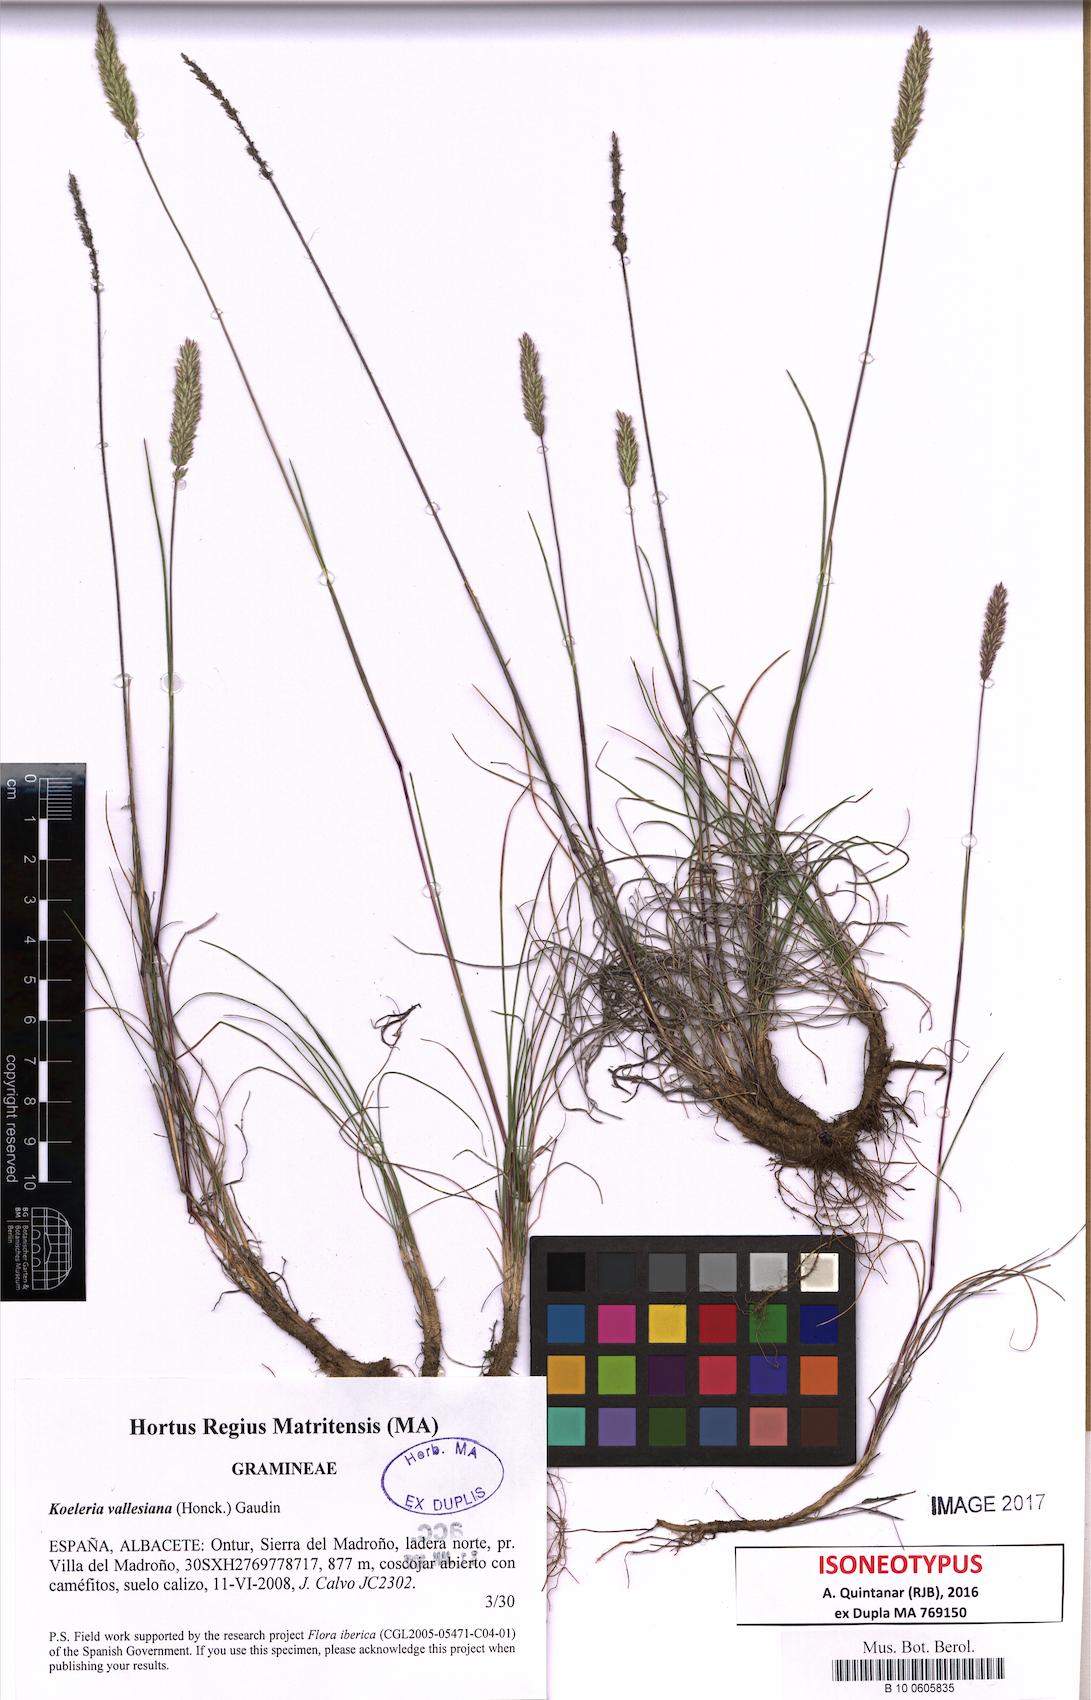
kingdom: Plantae
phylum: Tracheophyta
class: Liliopsida
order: Poales
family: Poaceae
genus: Koeleria
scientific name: Koeleria vallesiana
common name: Somerset hair-grass
